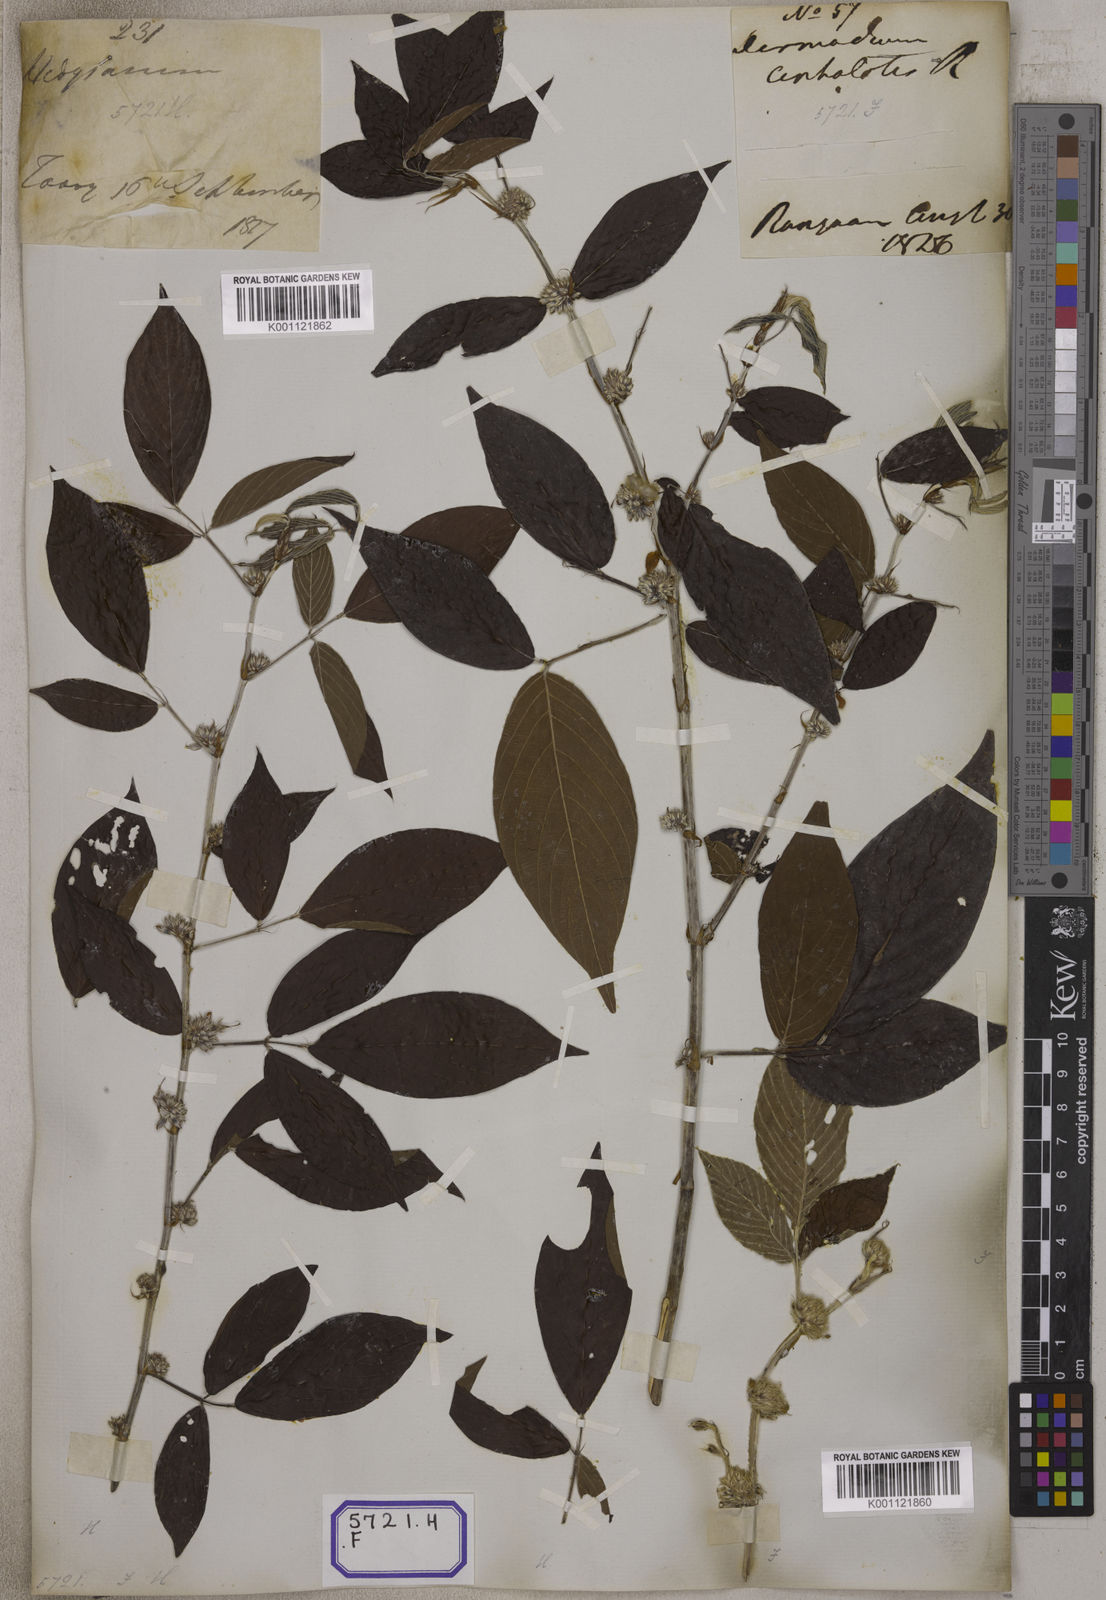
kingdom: Plantae
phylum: Tracheophyta
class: Magnoliopsida
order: Fabales
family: Fabaceae
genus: Desmodium
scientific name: Desmodium
